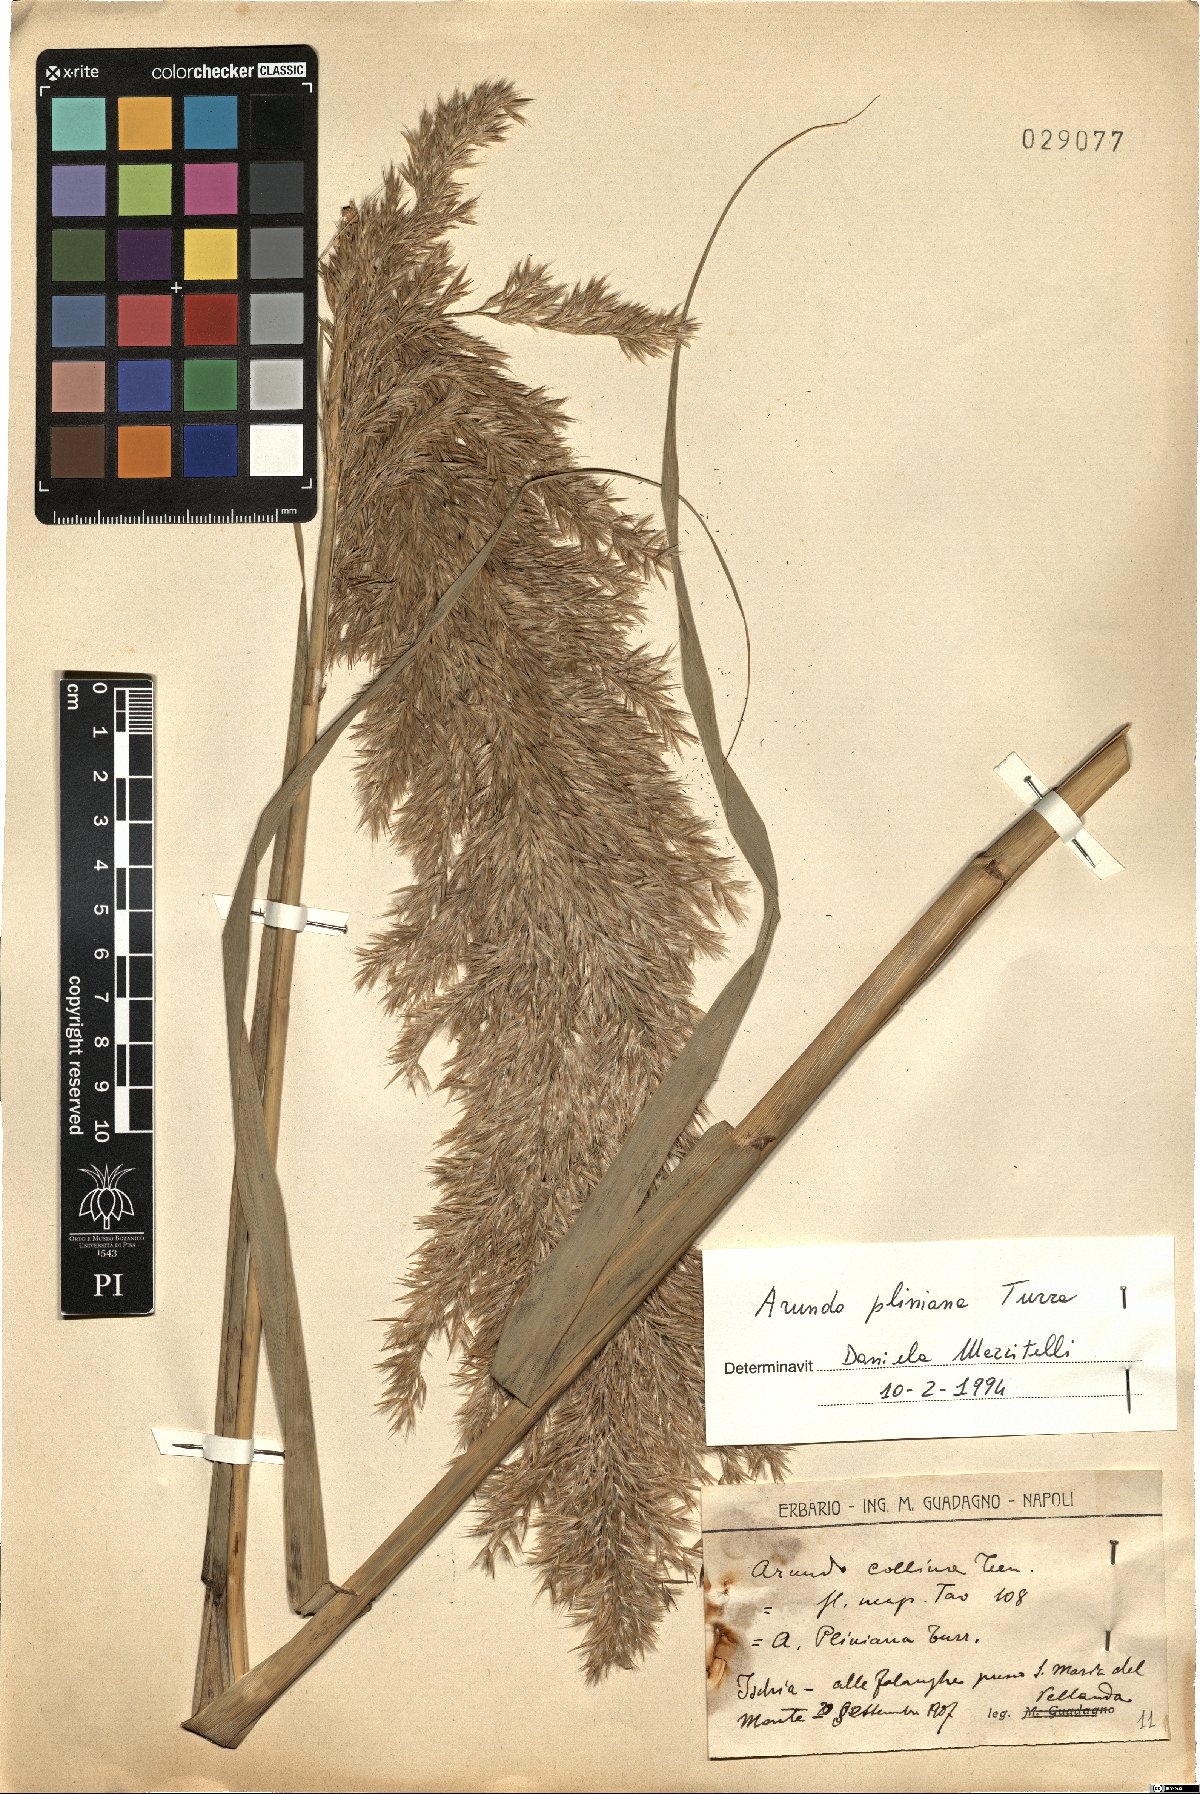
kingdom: Plantae
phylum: Tracheophyta
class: Liliopsida
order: Poales
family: Poaceae
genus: Arundo
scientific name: Arundo plinii
